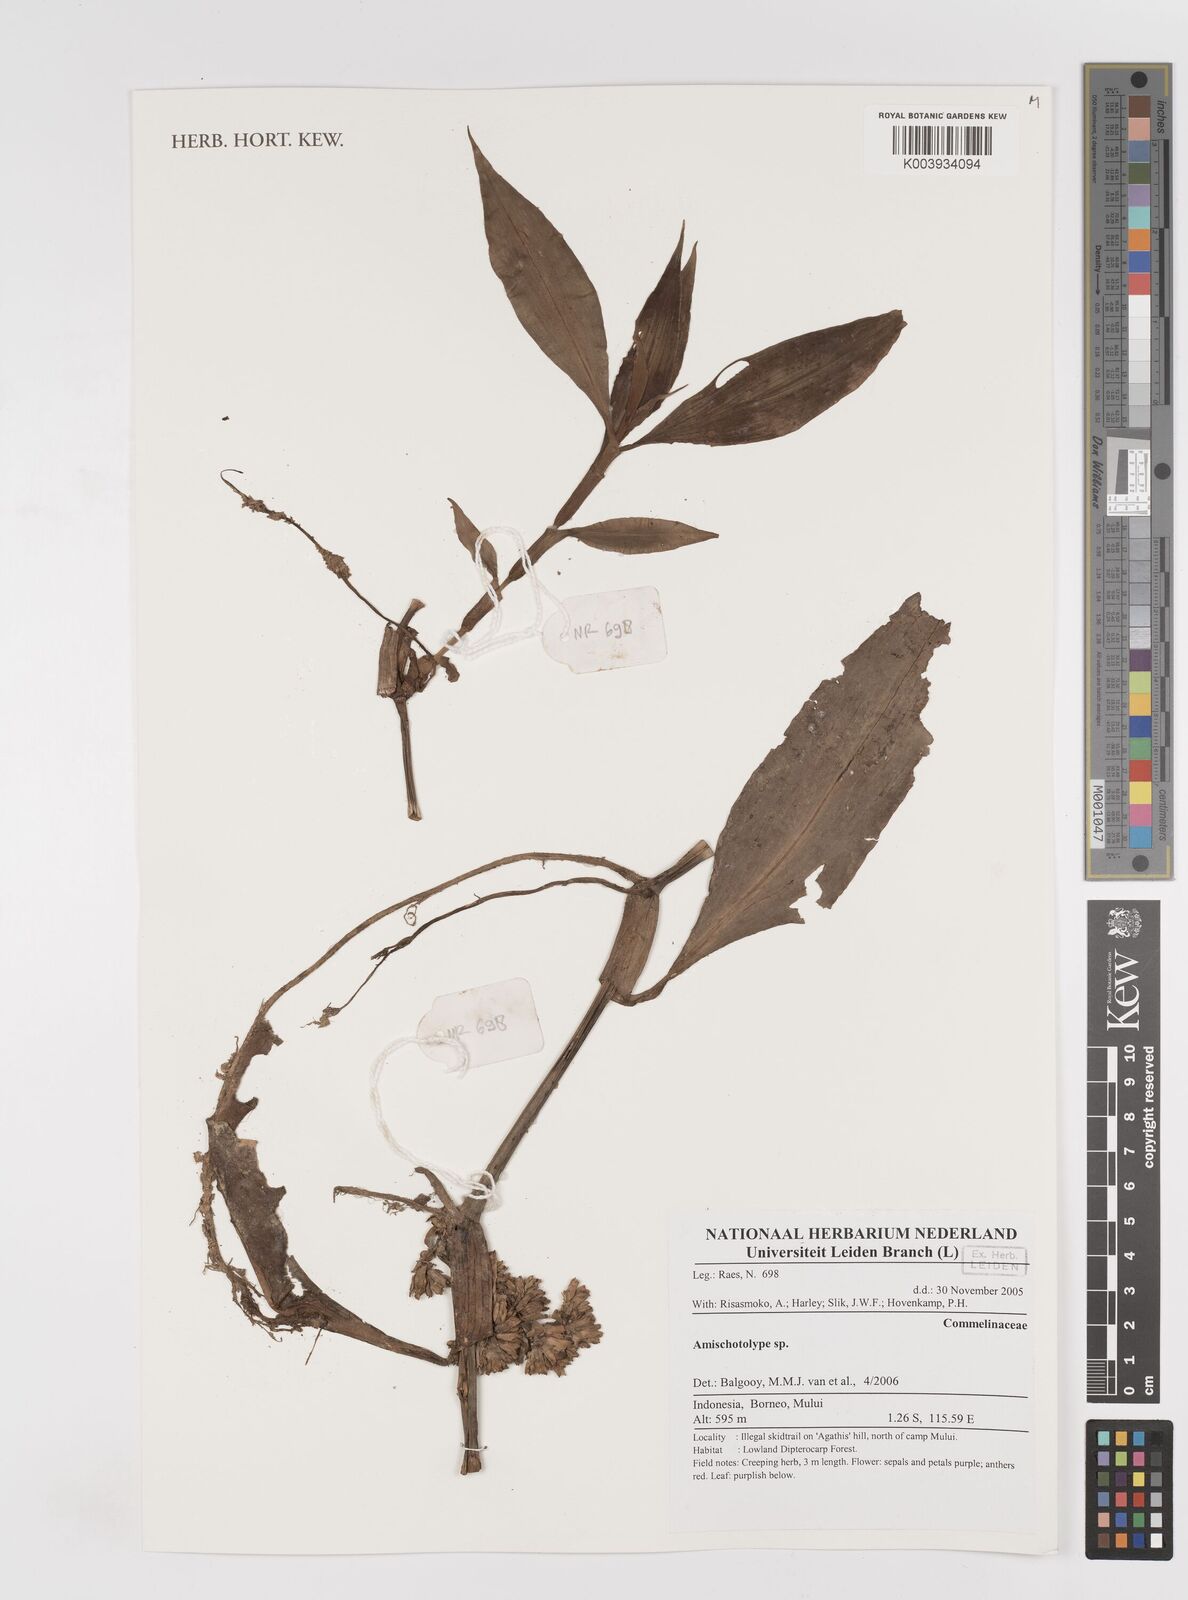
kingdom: Plantae
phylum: Tracheophyta
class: Liliopsida
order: Commelinales
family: Commelinaceae
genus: Amischotolype
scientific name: Amischotolype
